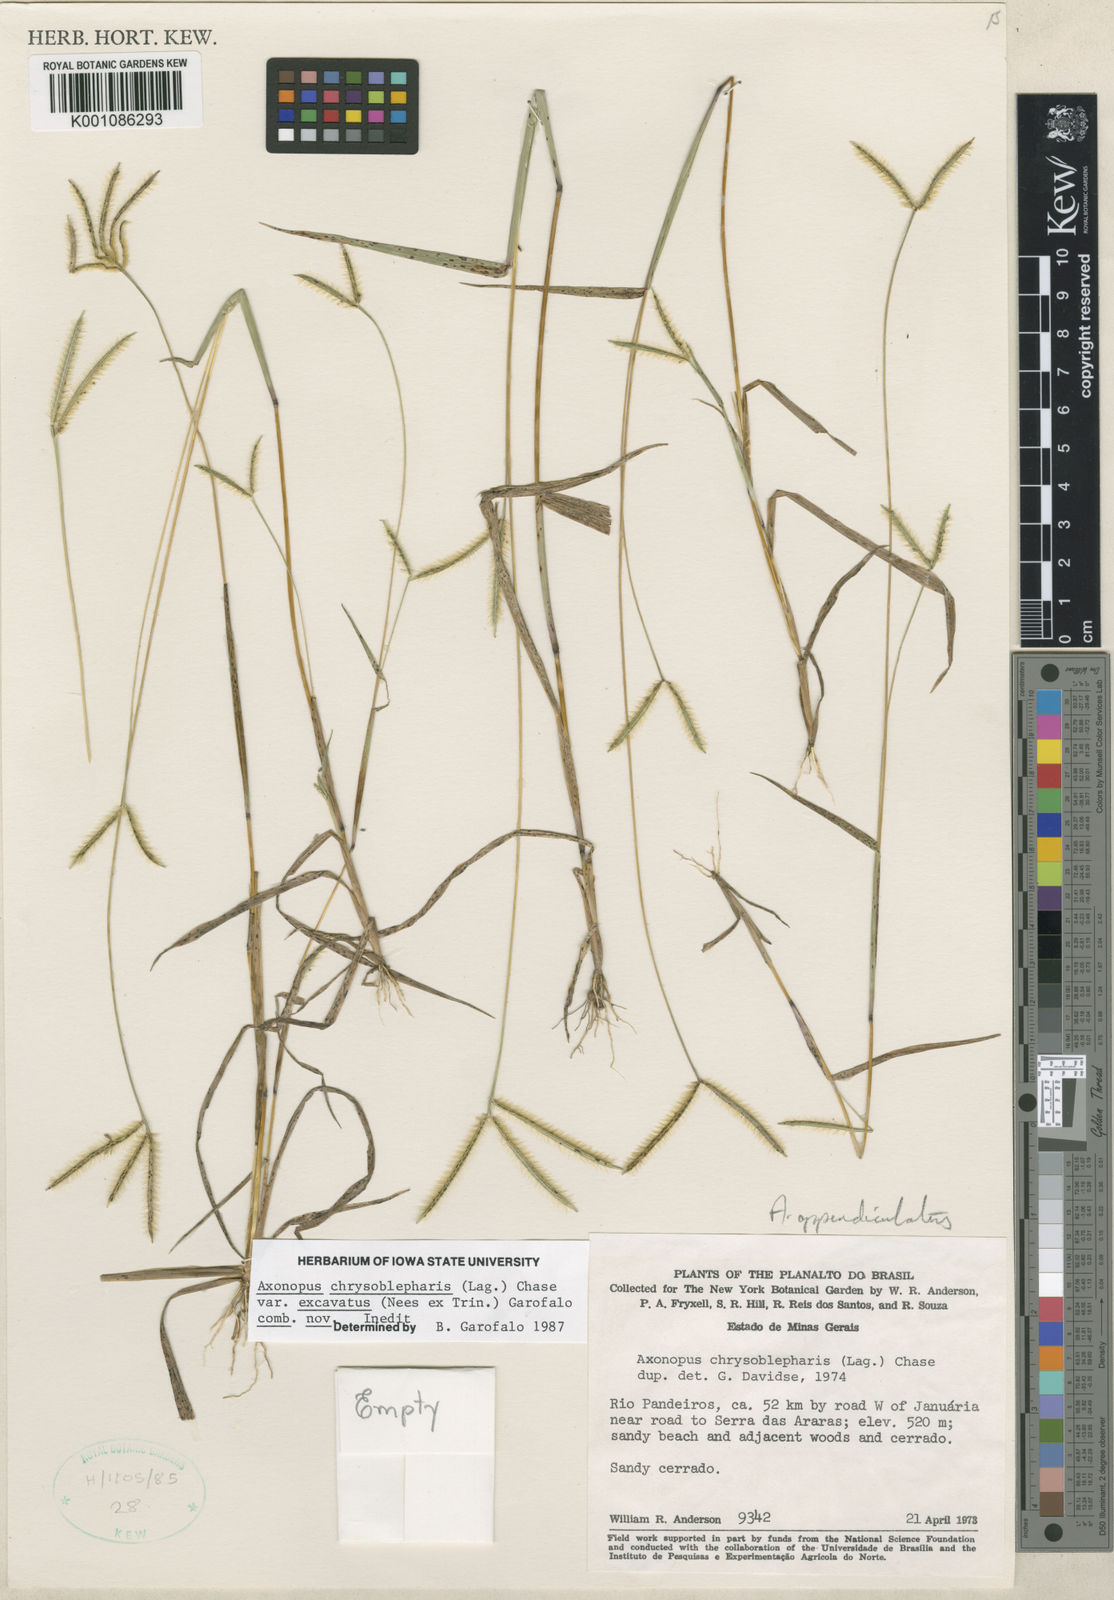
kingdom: Plantae
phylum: Tracheophyta
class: Liliopsida
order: Poales
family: Poaceae
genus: Axonopus
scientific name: Axonopus chrysoblepharis
